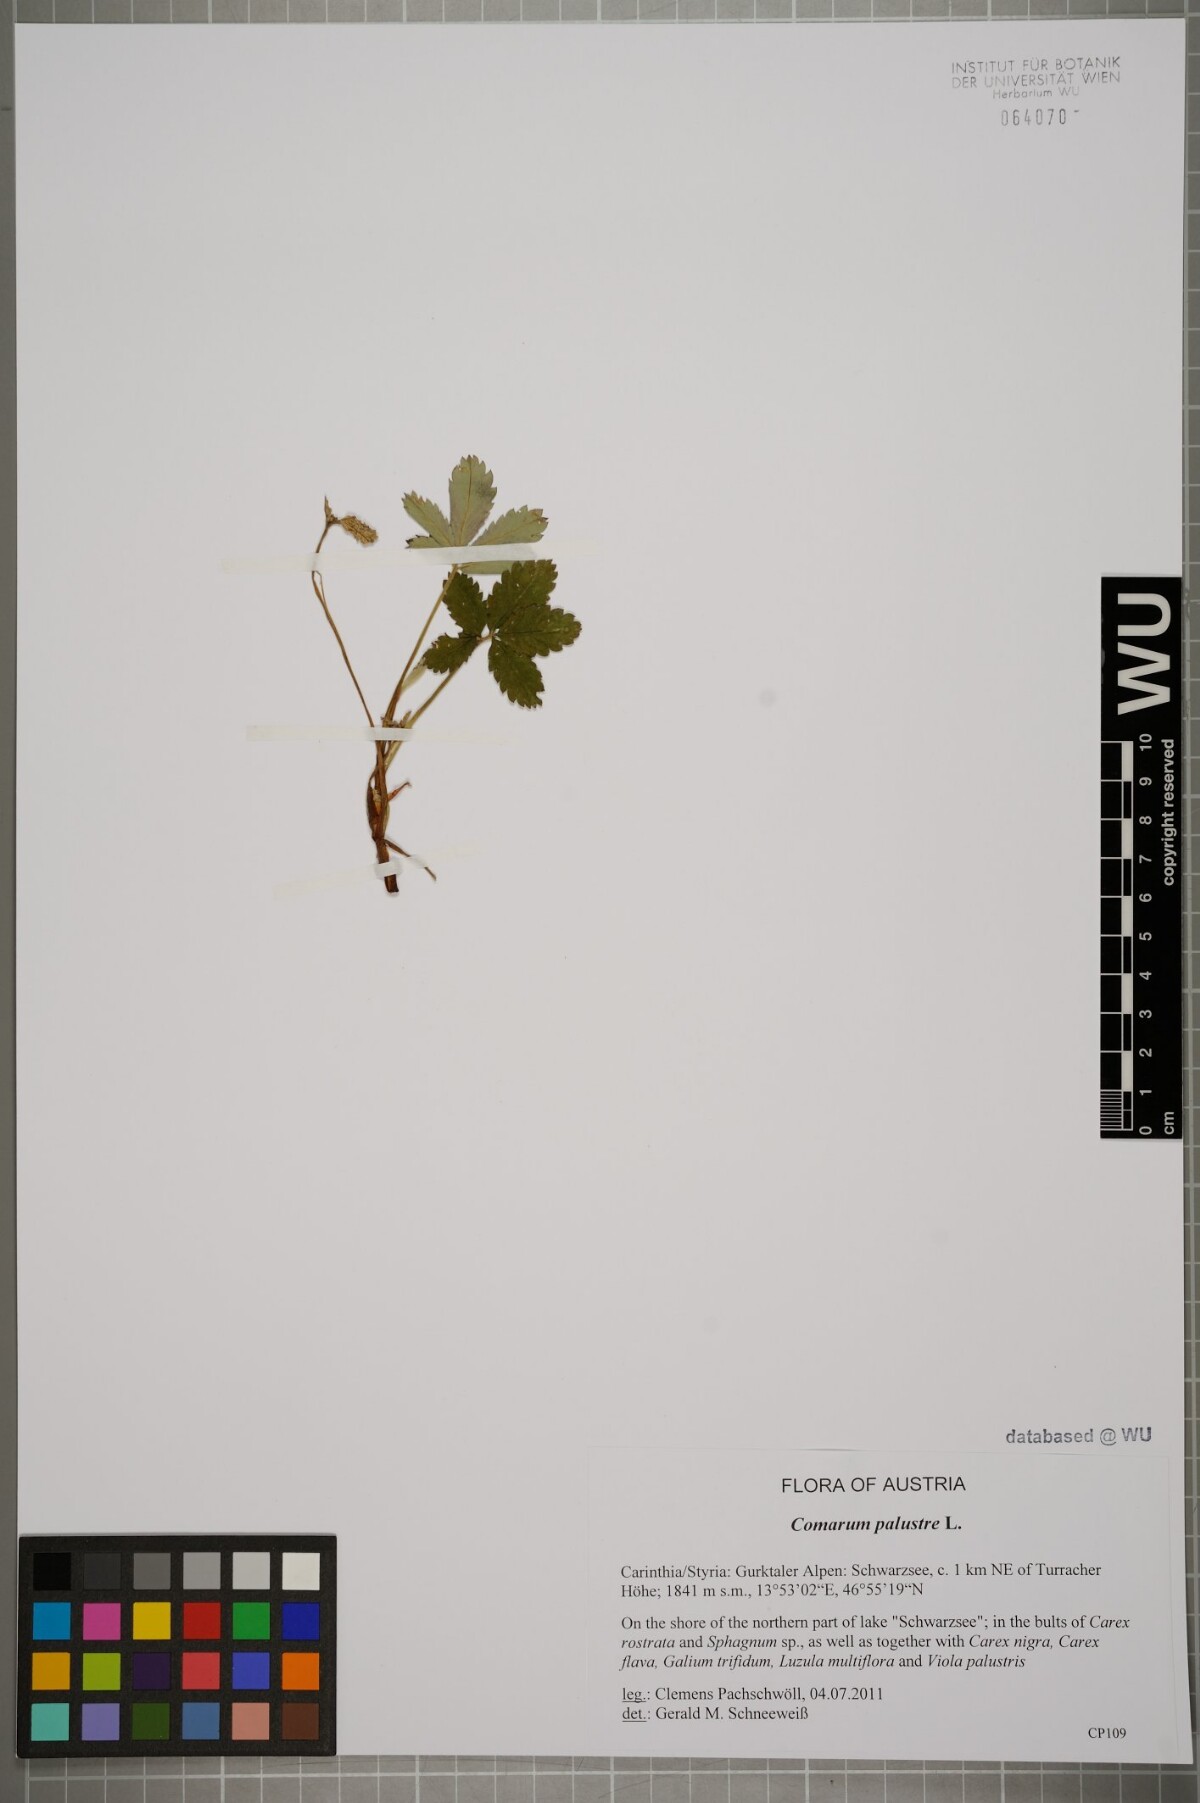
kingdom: Plantae
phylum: Tracheophyta
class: Magnoliopsida
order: Rosales
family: Rosaceae
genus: Comarum
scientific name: Comarum palustre
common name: Marsh cinquefoil
